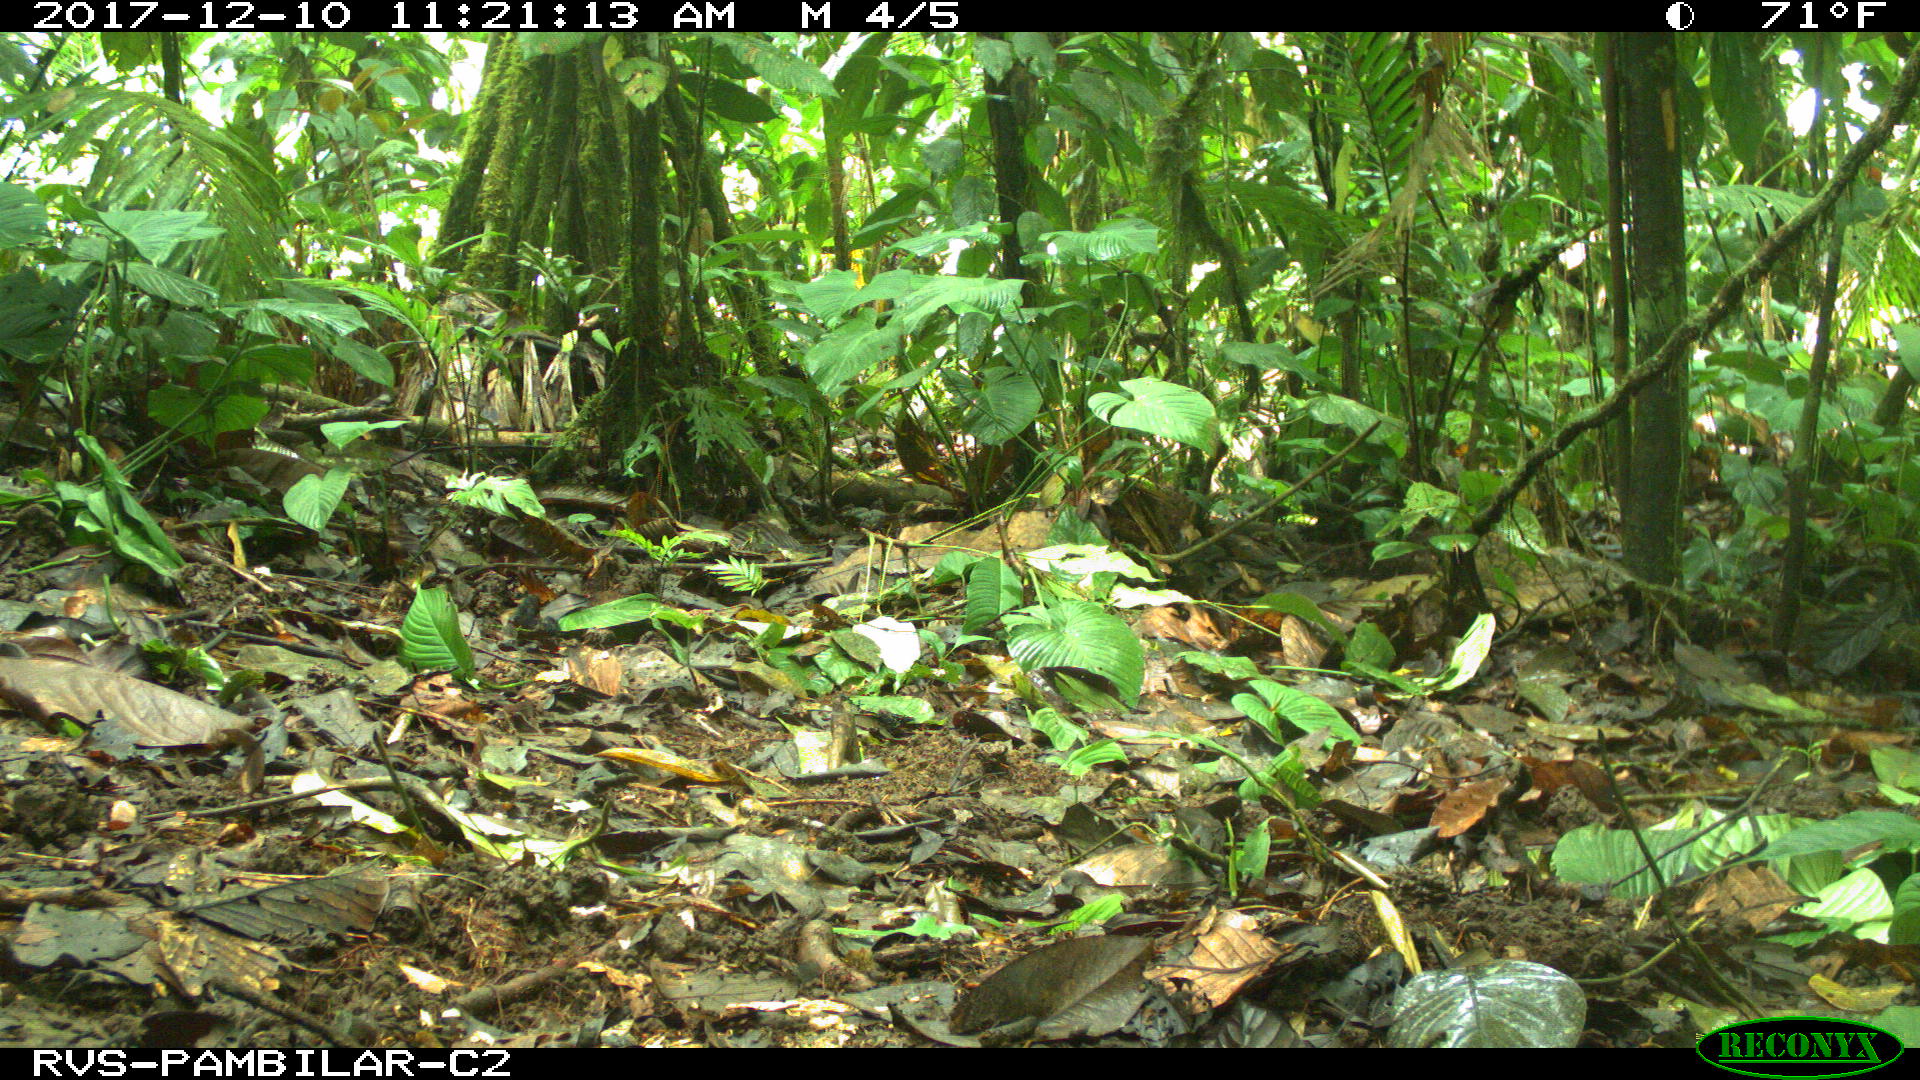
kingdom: Animalia
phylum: Chordata
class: Mammalia
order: Rodentia
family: Dasyproctidae
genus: Dasyprocta
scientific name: Dasyprocta punctata
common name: Central american agouti
